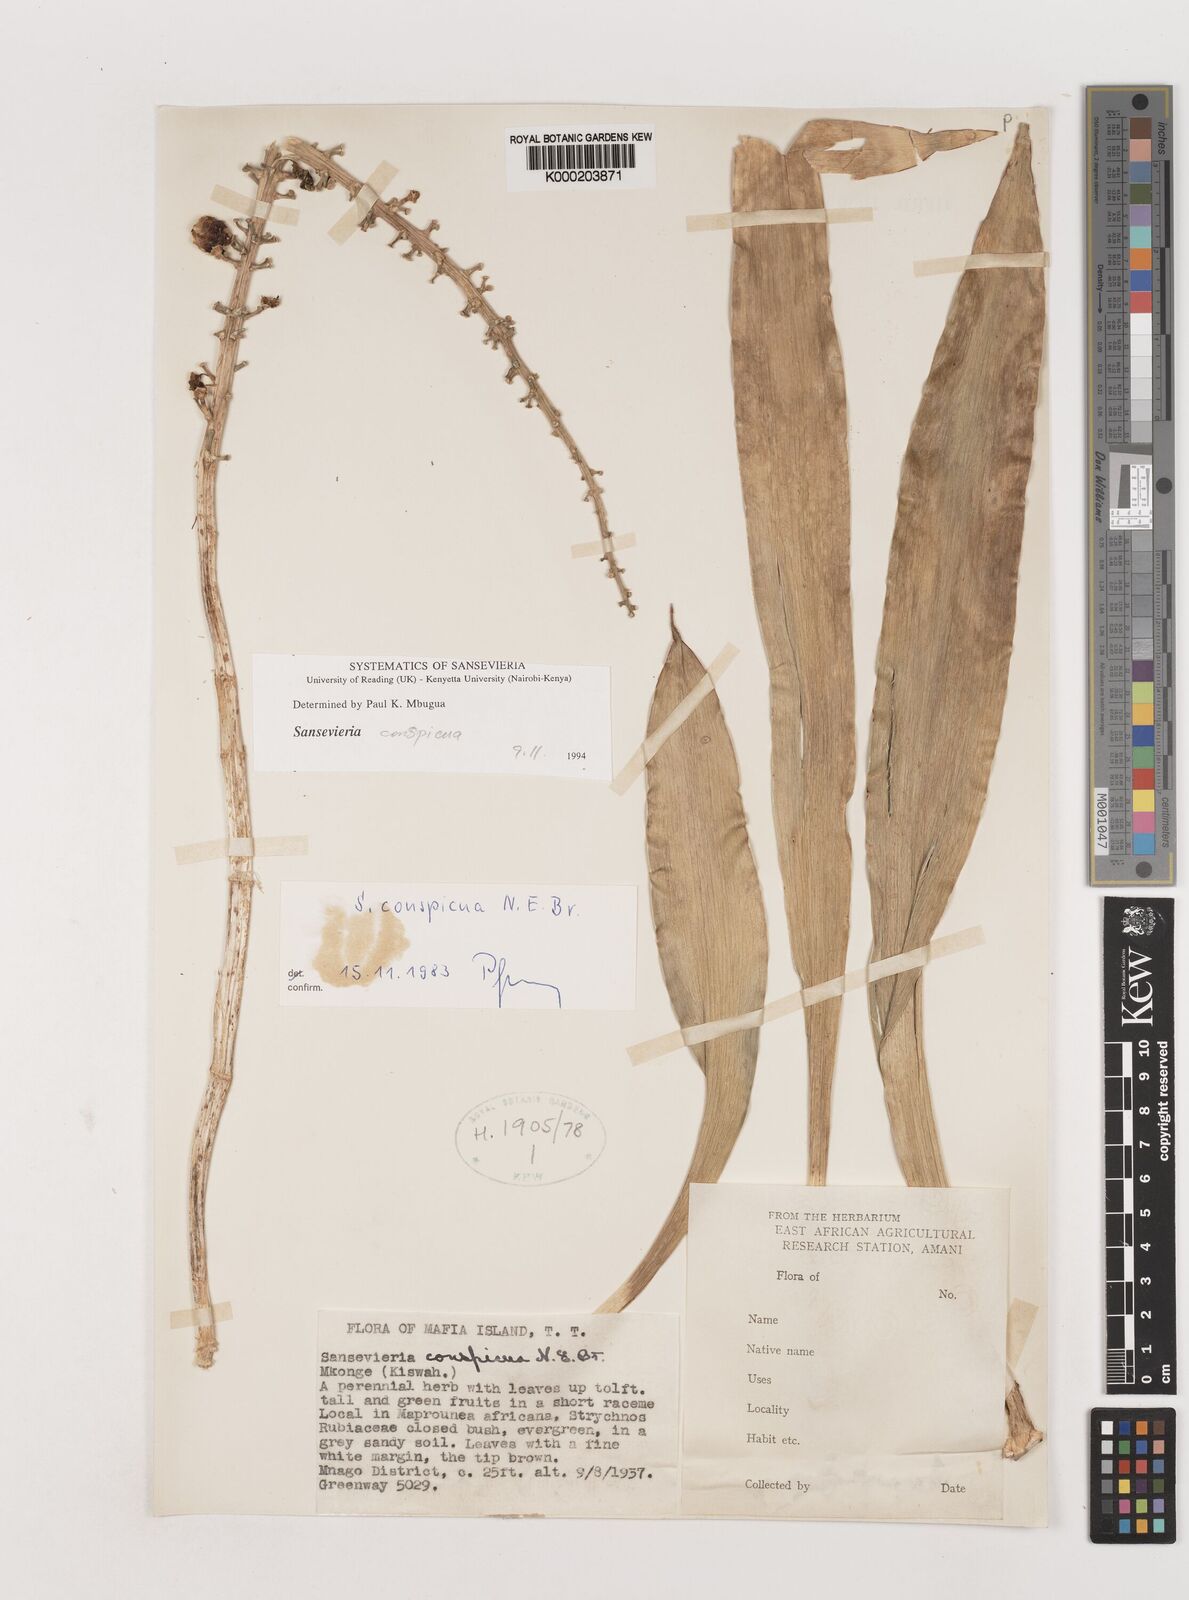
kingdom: Plantae
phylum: Tracheophyta
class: Liliopsida
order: Asparagales
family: Asparagaceae
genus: Dracaena
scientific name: Dracaena conspicua
